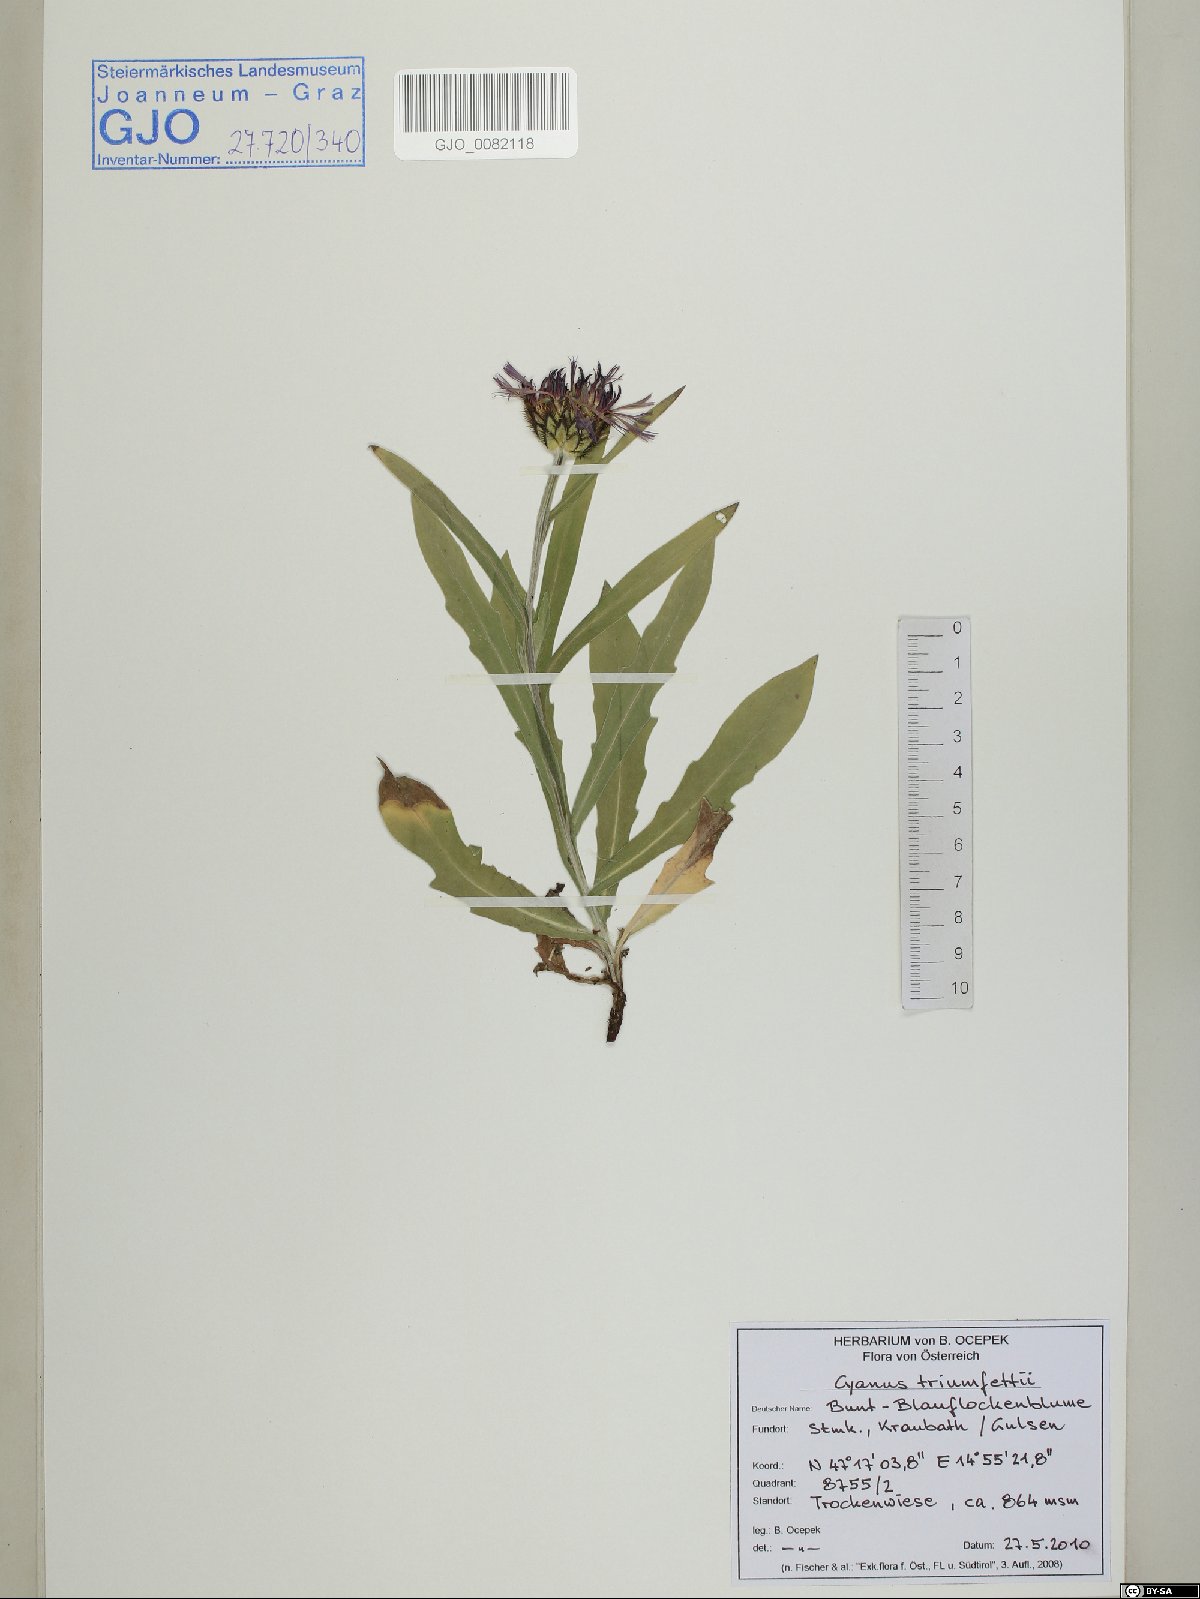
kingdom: Plantae
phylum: Tracheophyta
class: Magnoliopsida
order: Asterales
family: Asteraceae
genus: Centaurea
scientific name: Centaurea triumfettii
